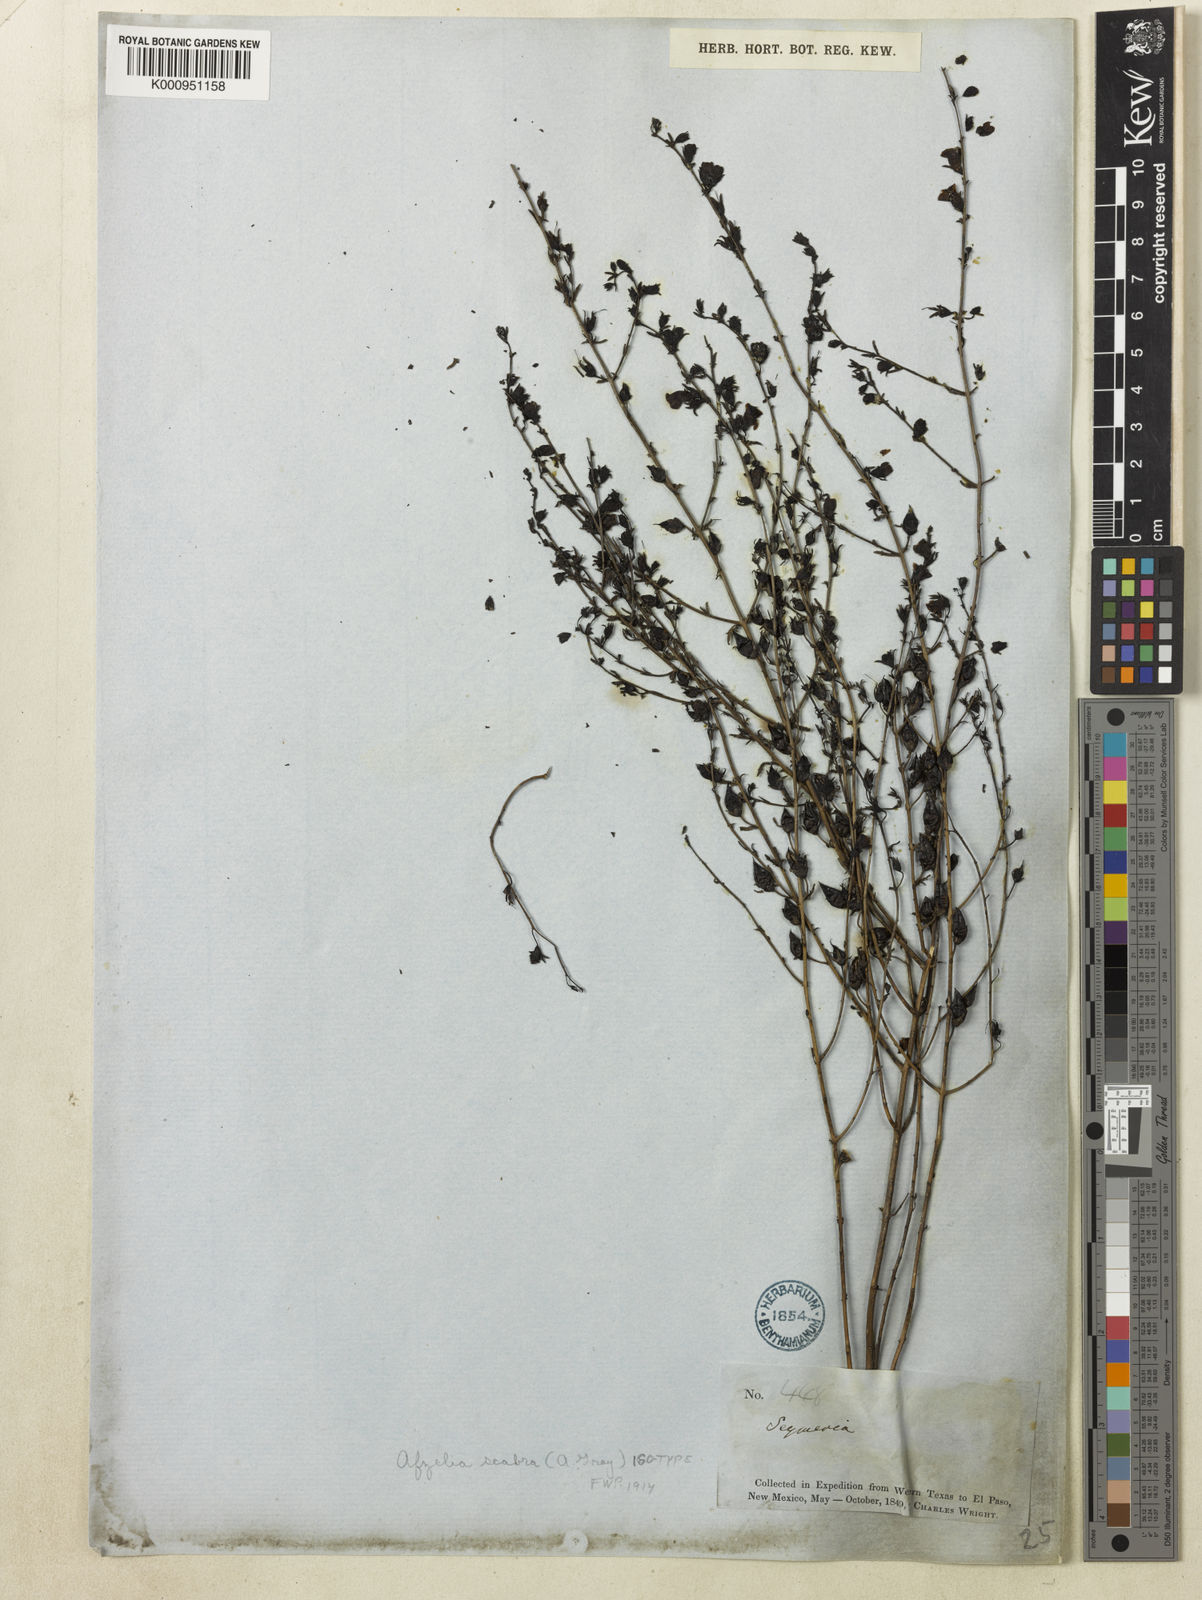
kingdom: Plantae
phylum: Tracheophyta
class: Magnoliopsida
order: Lamiales
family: Orobanchaceae
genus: Seymeria
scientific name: Seymeria scabra
